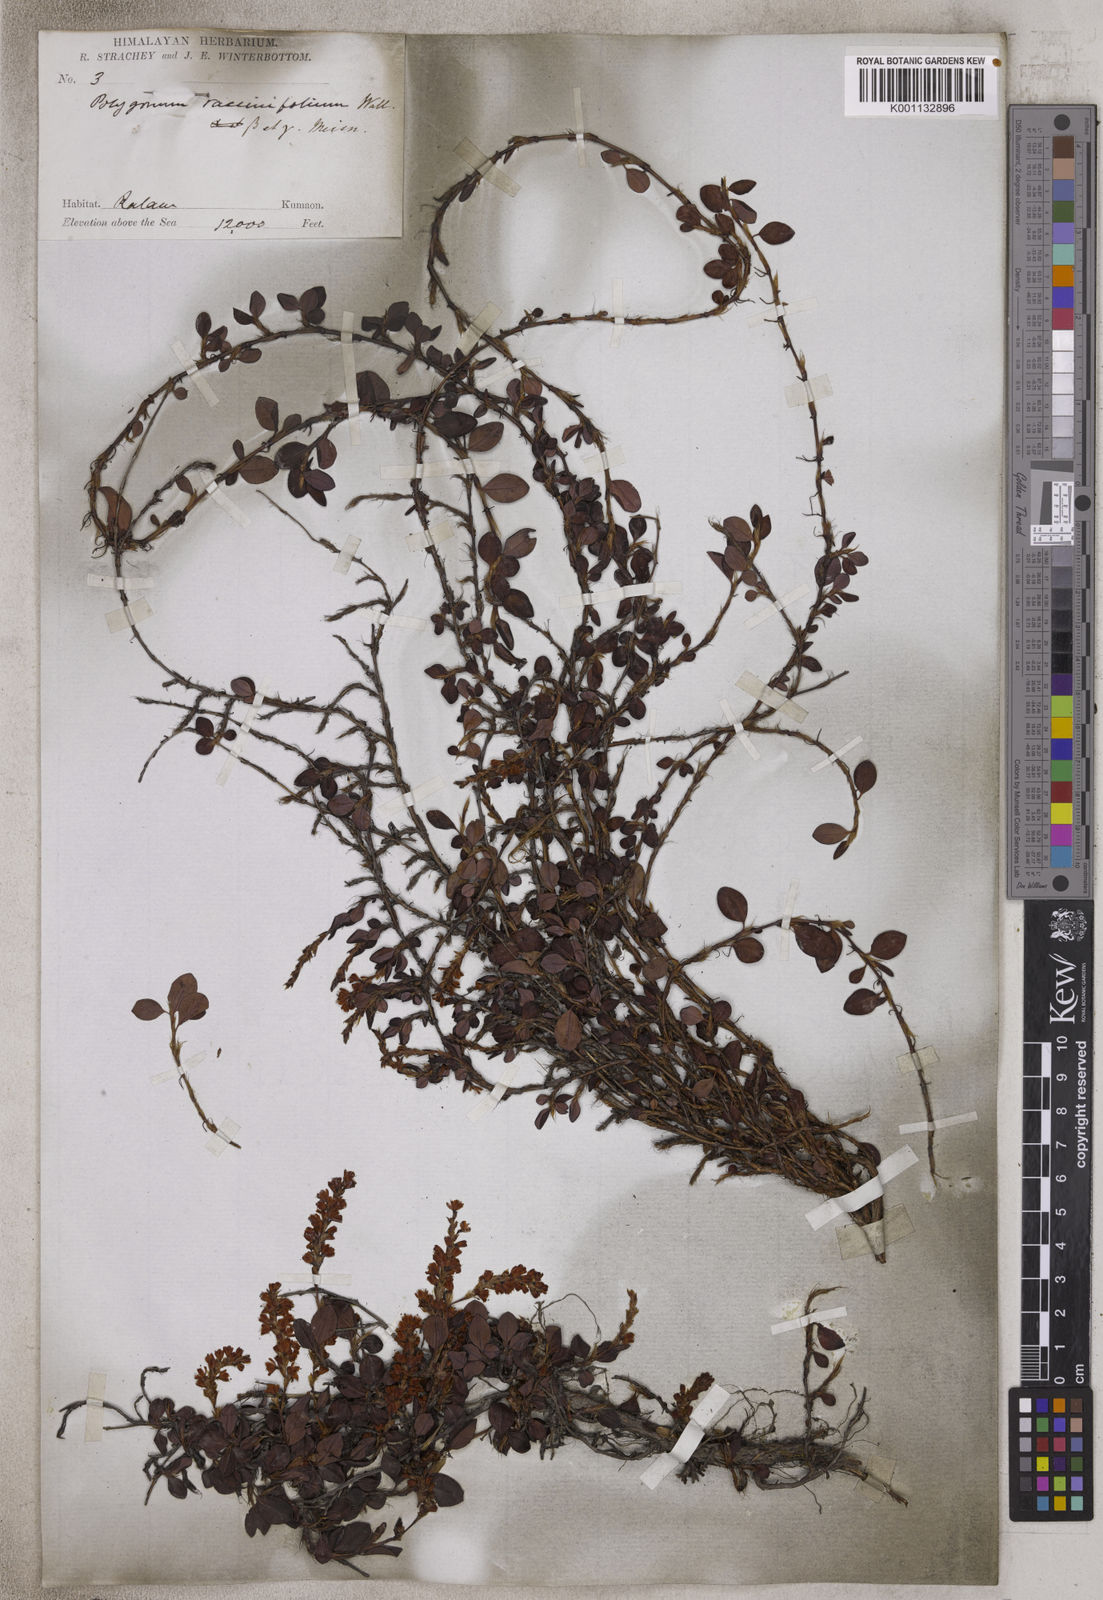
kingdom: Plantae
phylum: Tracheophyta
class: Magnoliopsida
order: Caryophyllales
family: Polygonaceae
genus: Polygonum
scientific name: Polygonum
